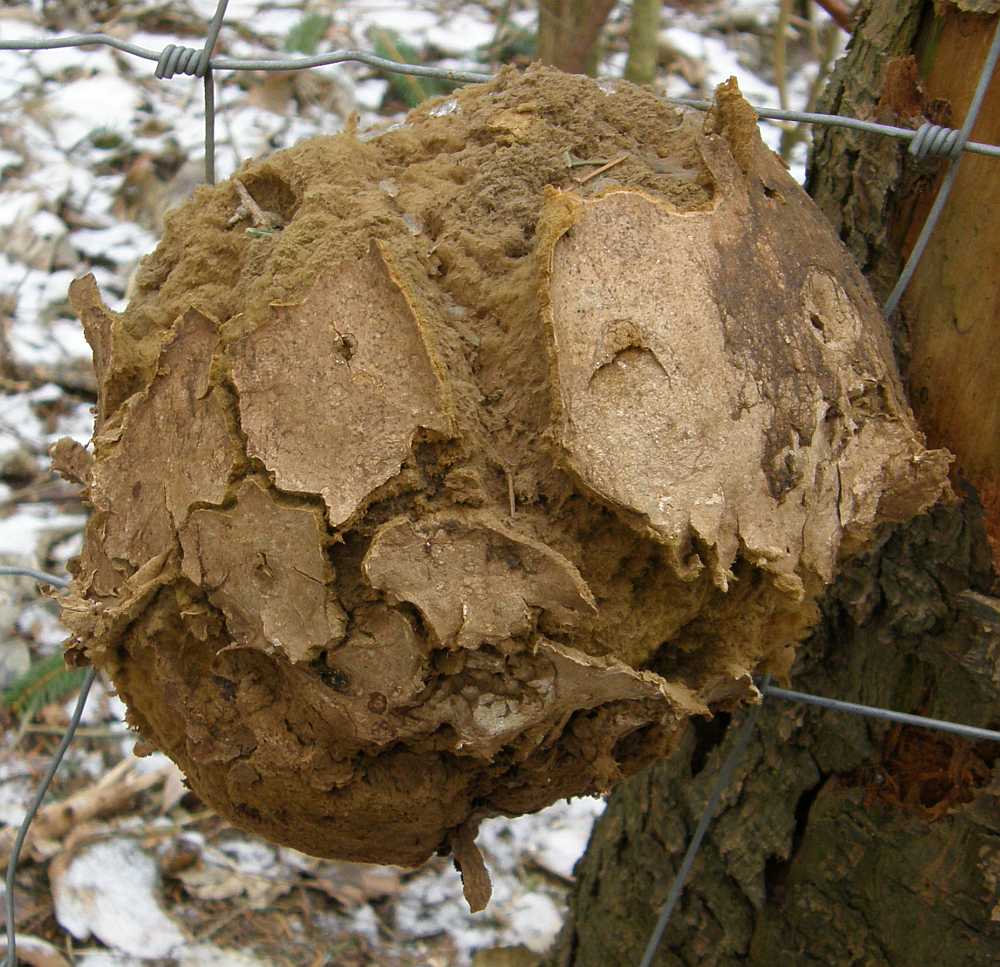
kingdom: Fungi
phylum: Basidiomycota
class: Agaricomycetes
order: Agaricales
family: Lycoperdaceae
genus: Calvatia
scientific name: Calvatia gigantea
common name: kæmpestøvbold
